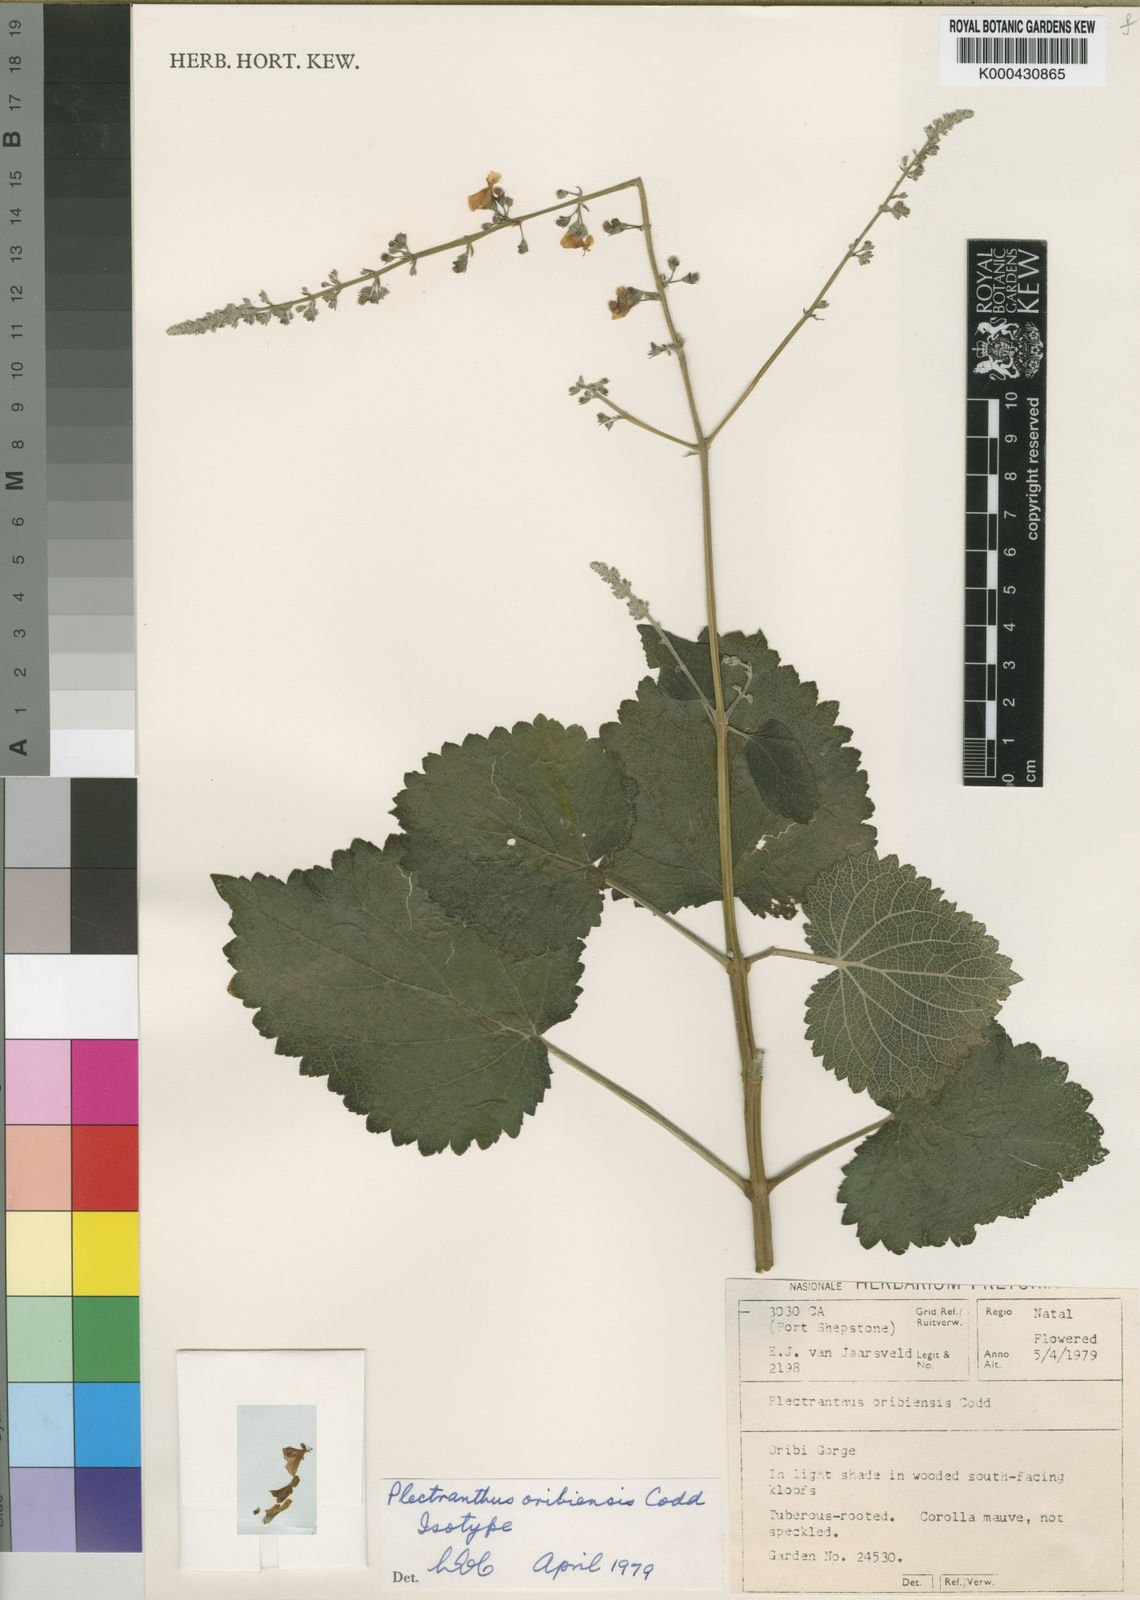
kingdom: Plantae
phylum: Tracheophyta
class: Magnoliopsida
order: Lamiales
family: Lamiaceae
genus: Plectranthus
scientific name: Plectranthus oribiensis
